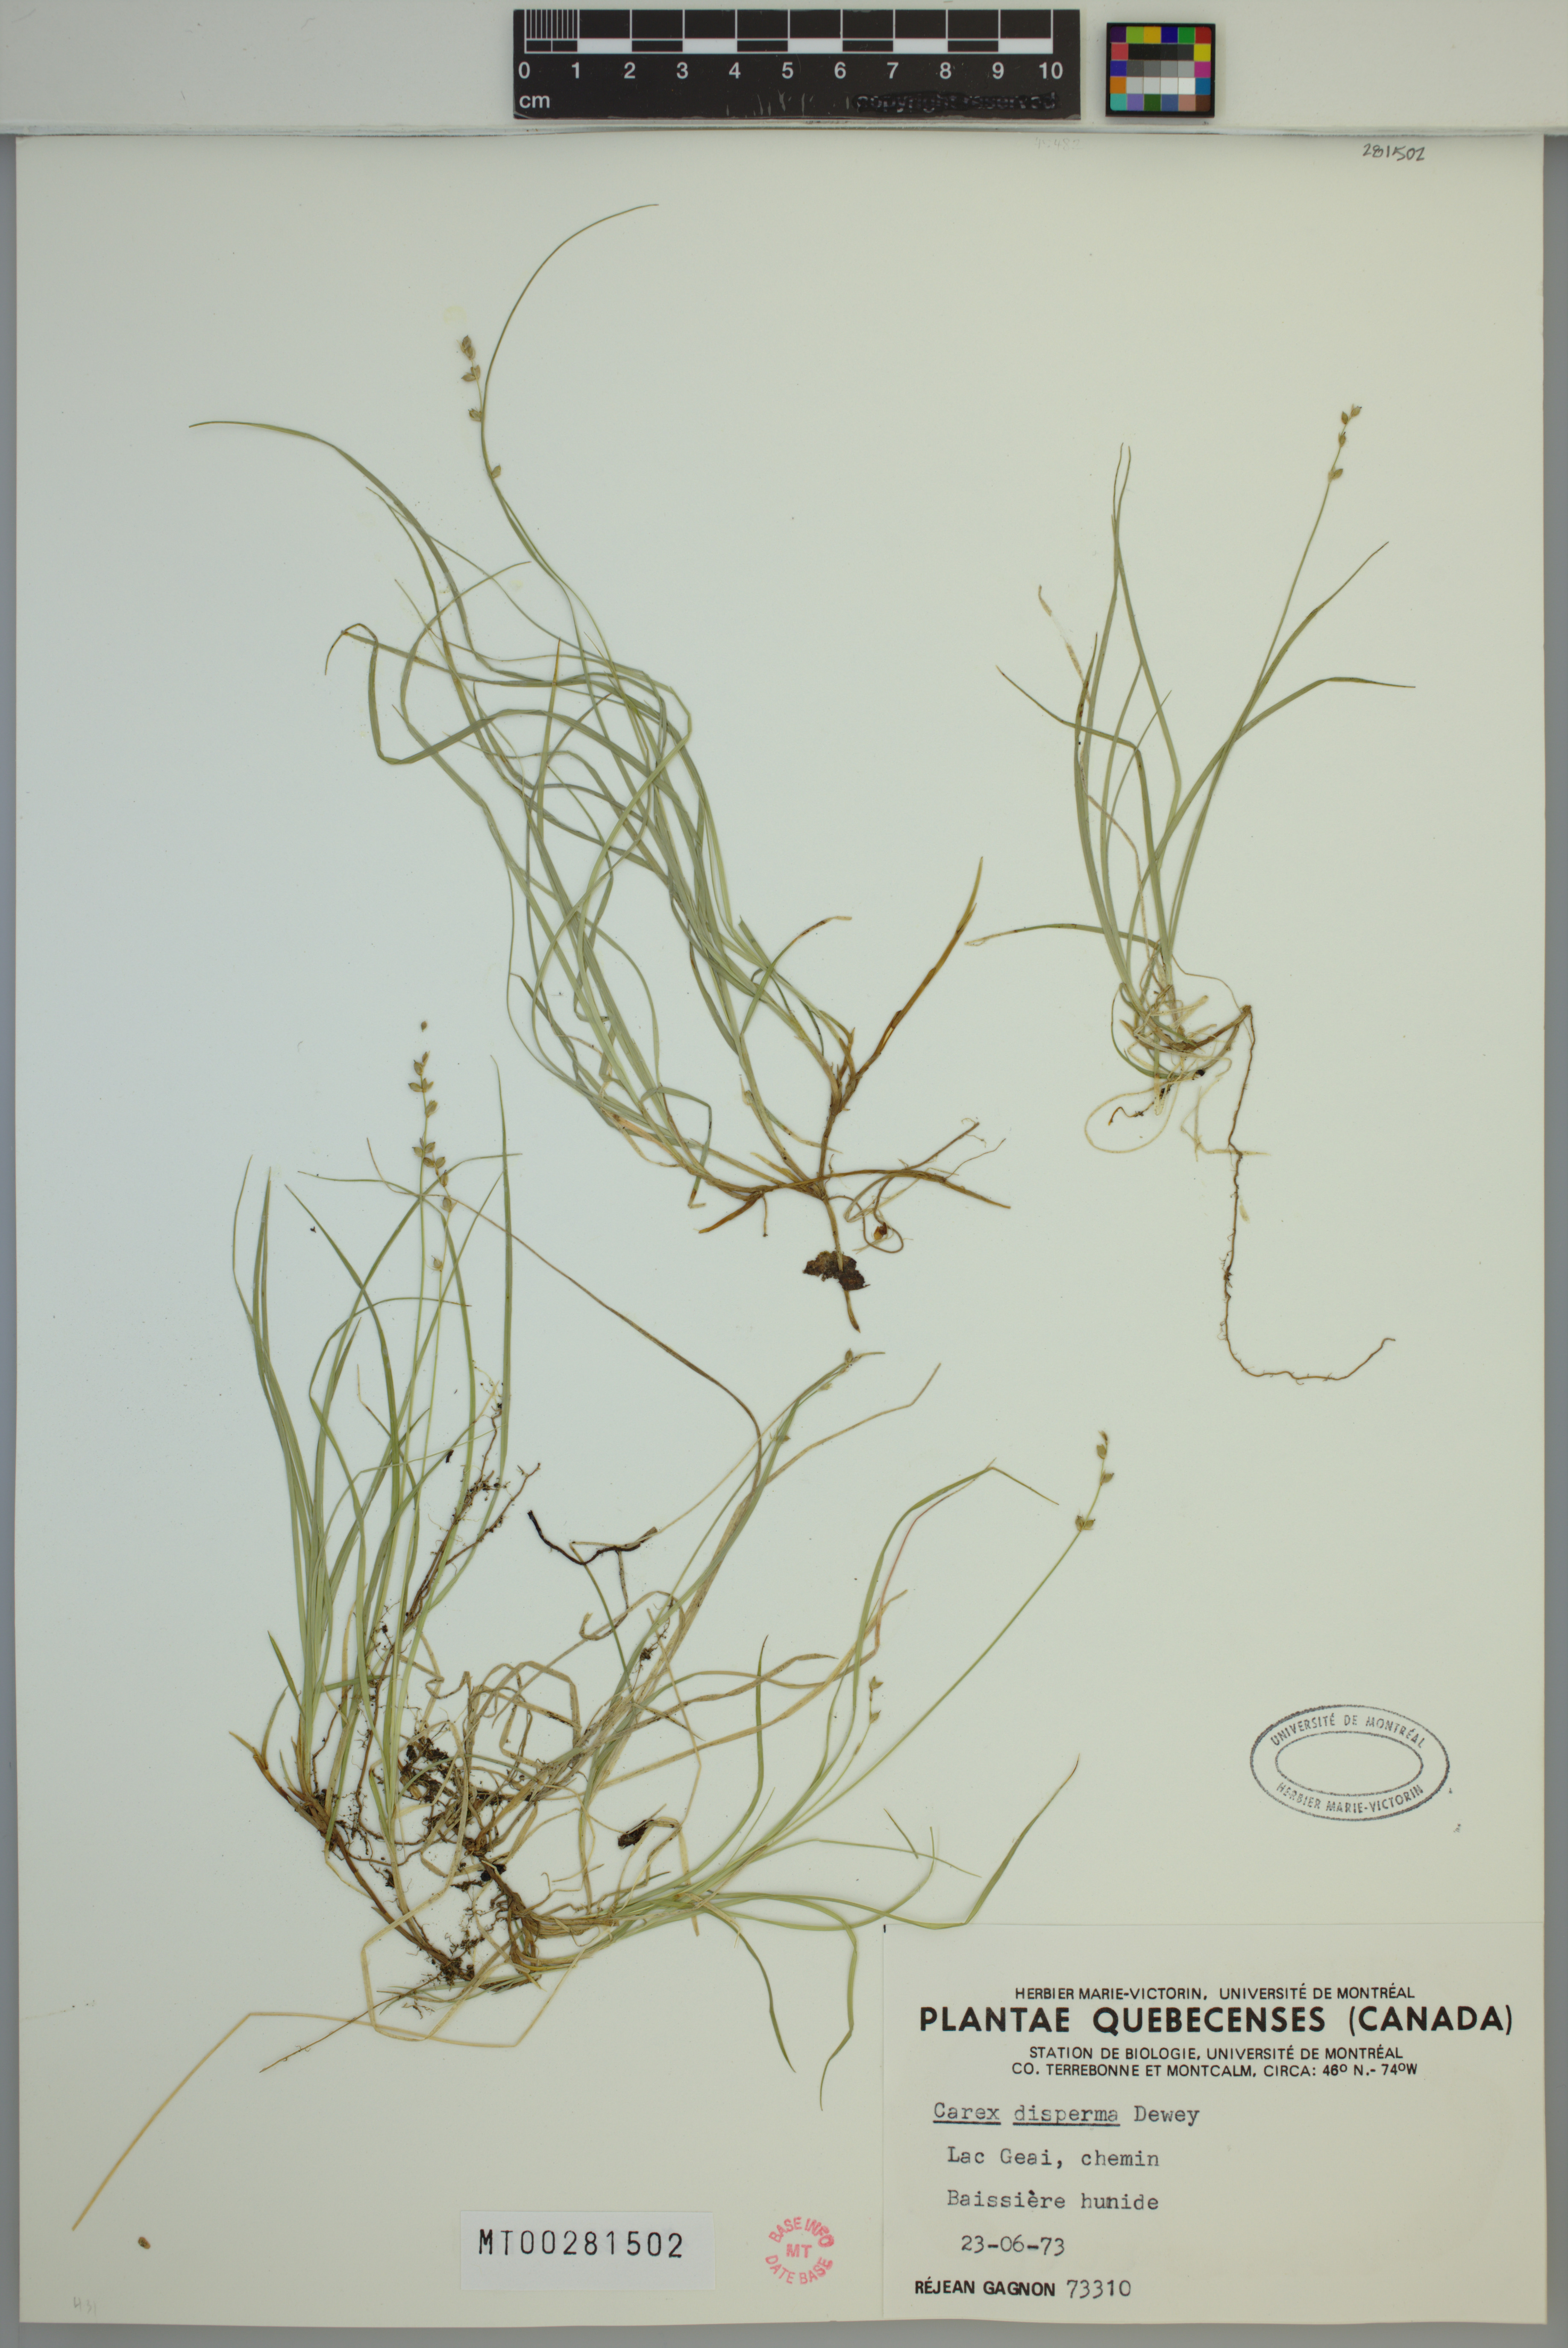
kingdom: Plantae
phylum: Tracheophyta
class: Liliopsida
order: Poales
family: Cyperaceae
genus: Carex
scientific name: Carex disperma
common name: Short-leaved sedge
